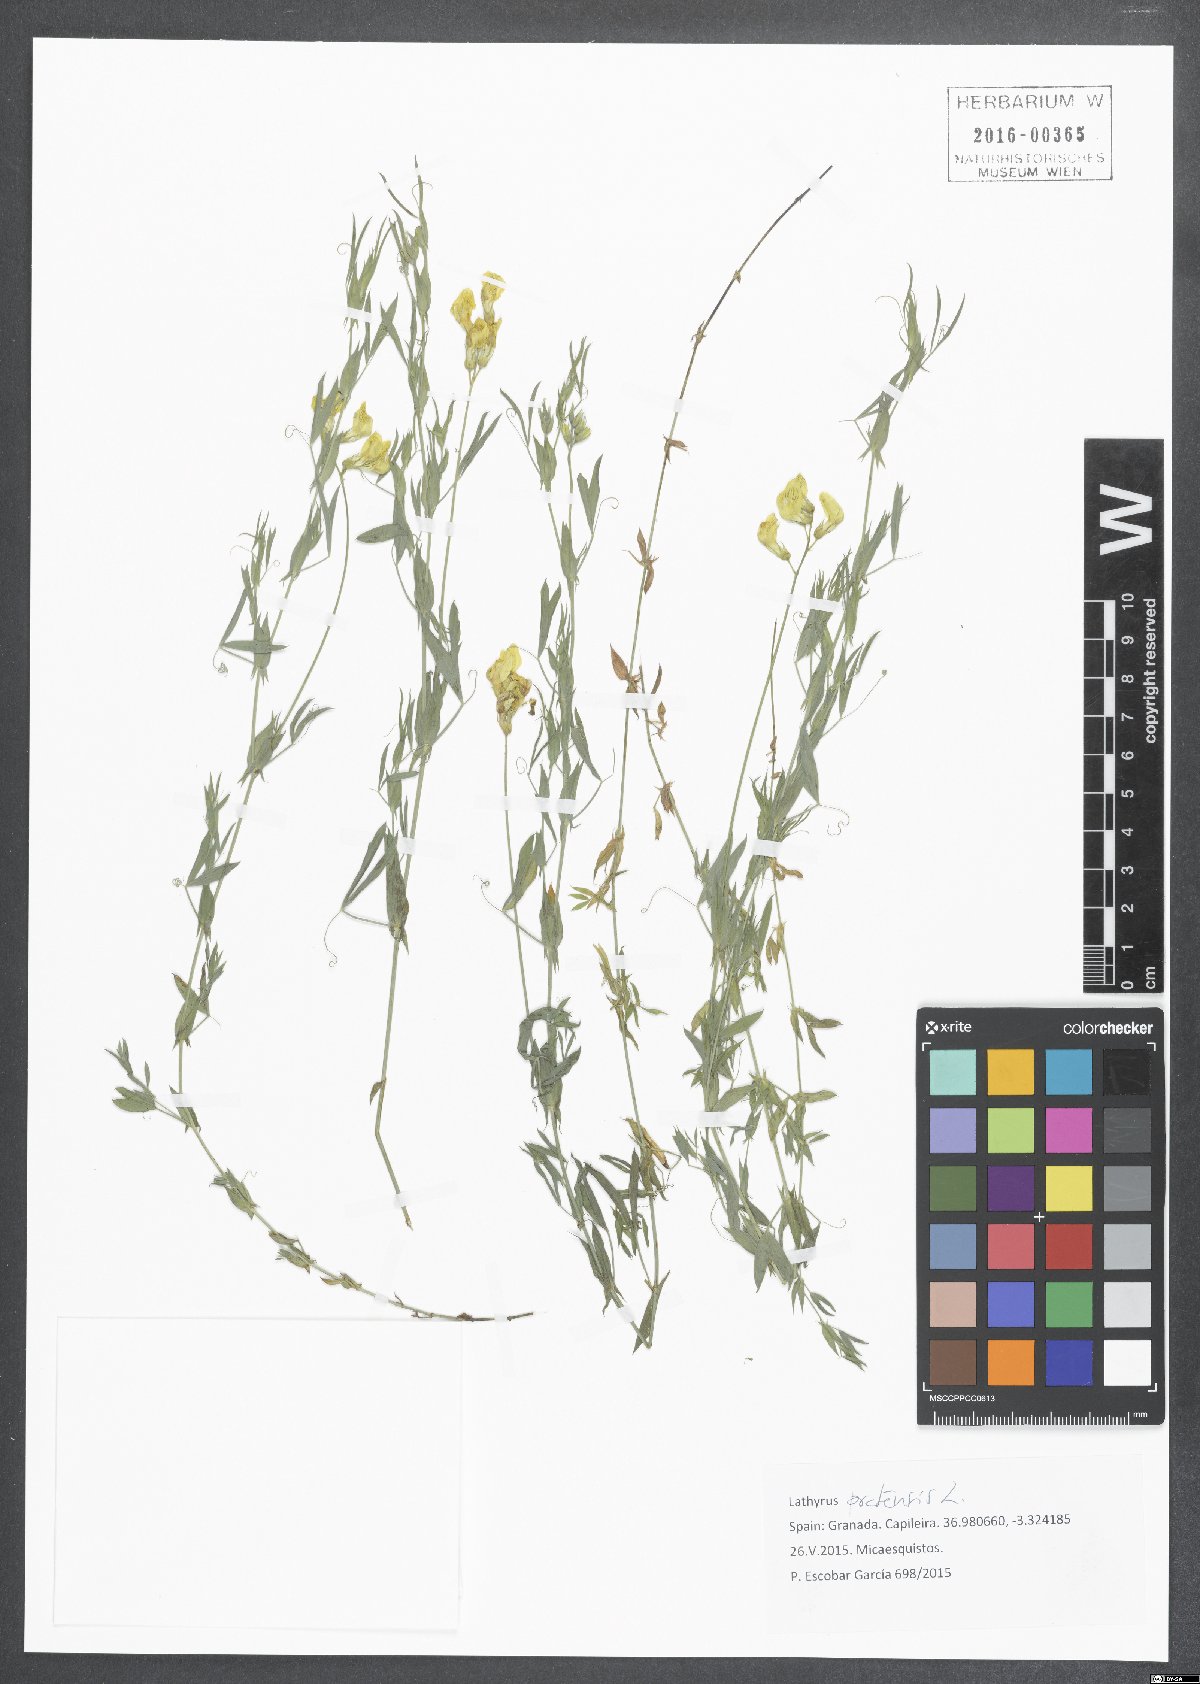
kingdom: Plantae
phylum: Tracheophyta
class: Magnoliopsida
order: Fabales
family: Fabaceae
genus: Lathyrus
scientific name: Lathyrus pratensis
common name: Meadow vetchling
